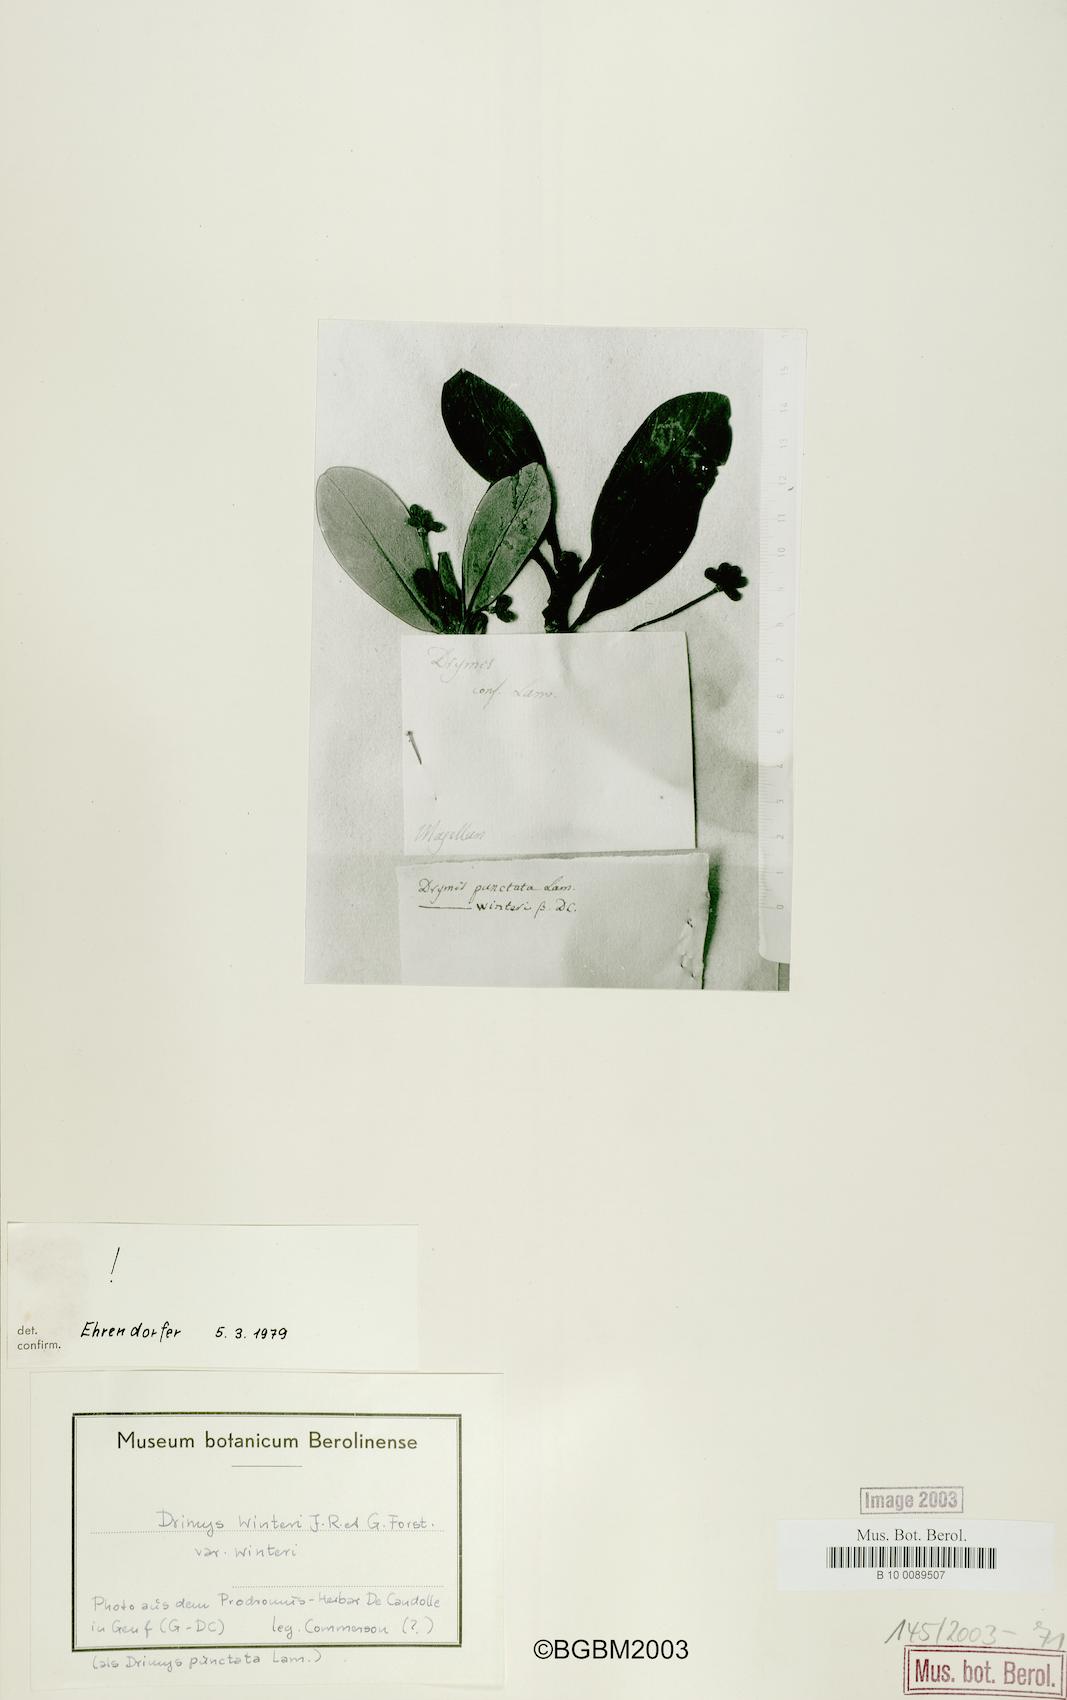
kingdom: Plantae
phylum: Tracheophyta
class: Magnoliopsida
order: Canellales
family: Winteraceae
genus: Drimys
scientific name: Drimys winteri
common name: Winter's-bark
